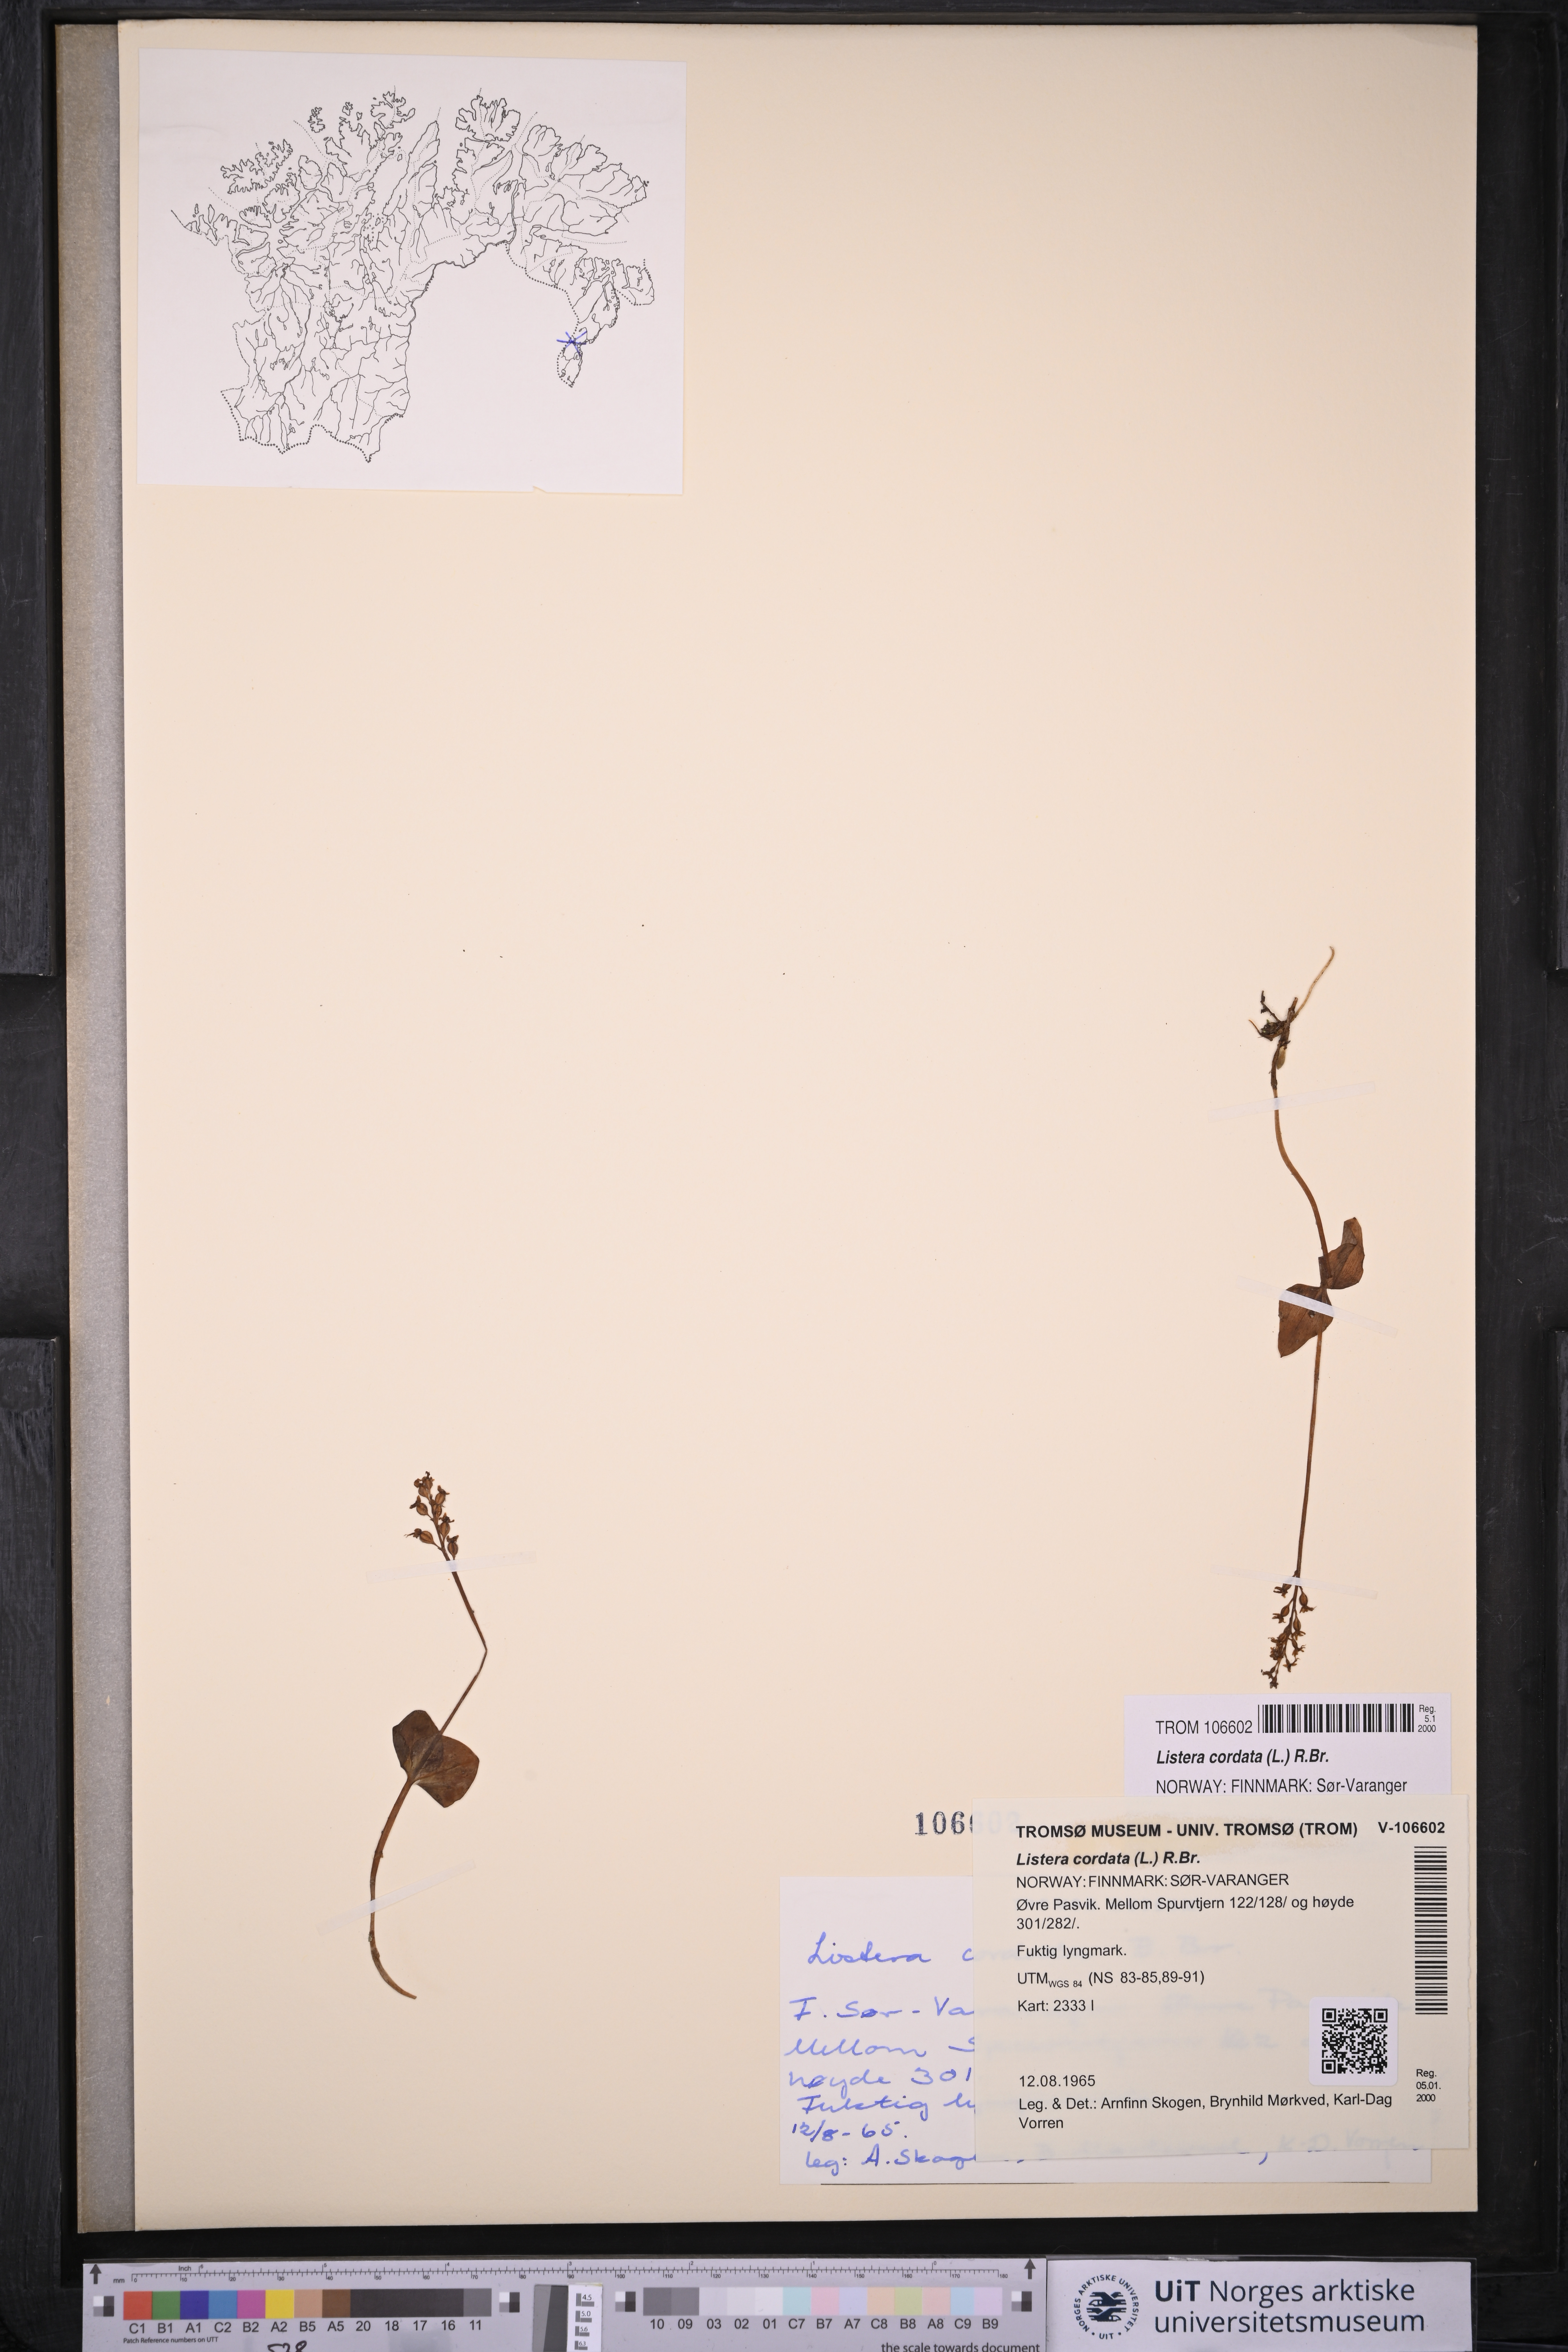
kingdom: Plantae
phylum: Tracheophyta
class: Liliopsida
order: Asparagales
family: Orchidaceae
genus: Neottia
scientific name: Neottia cordata
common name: Lesser twayblade
